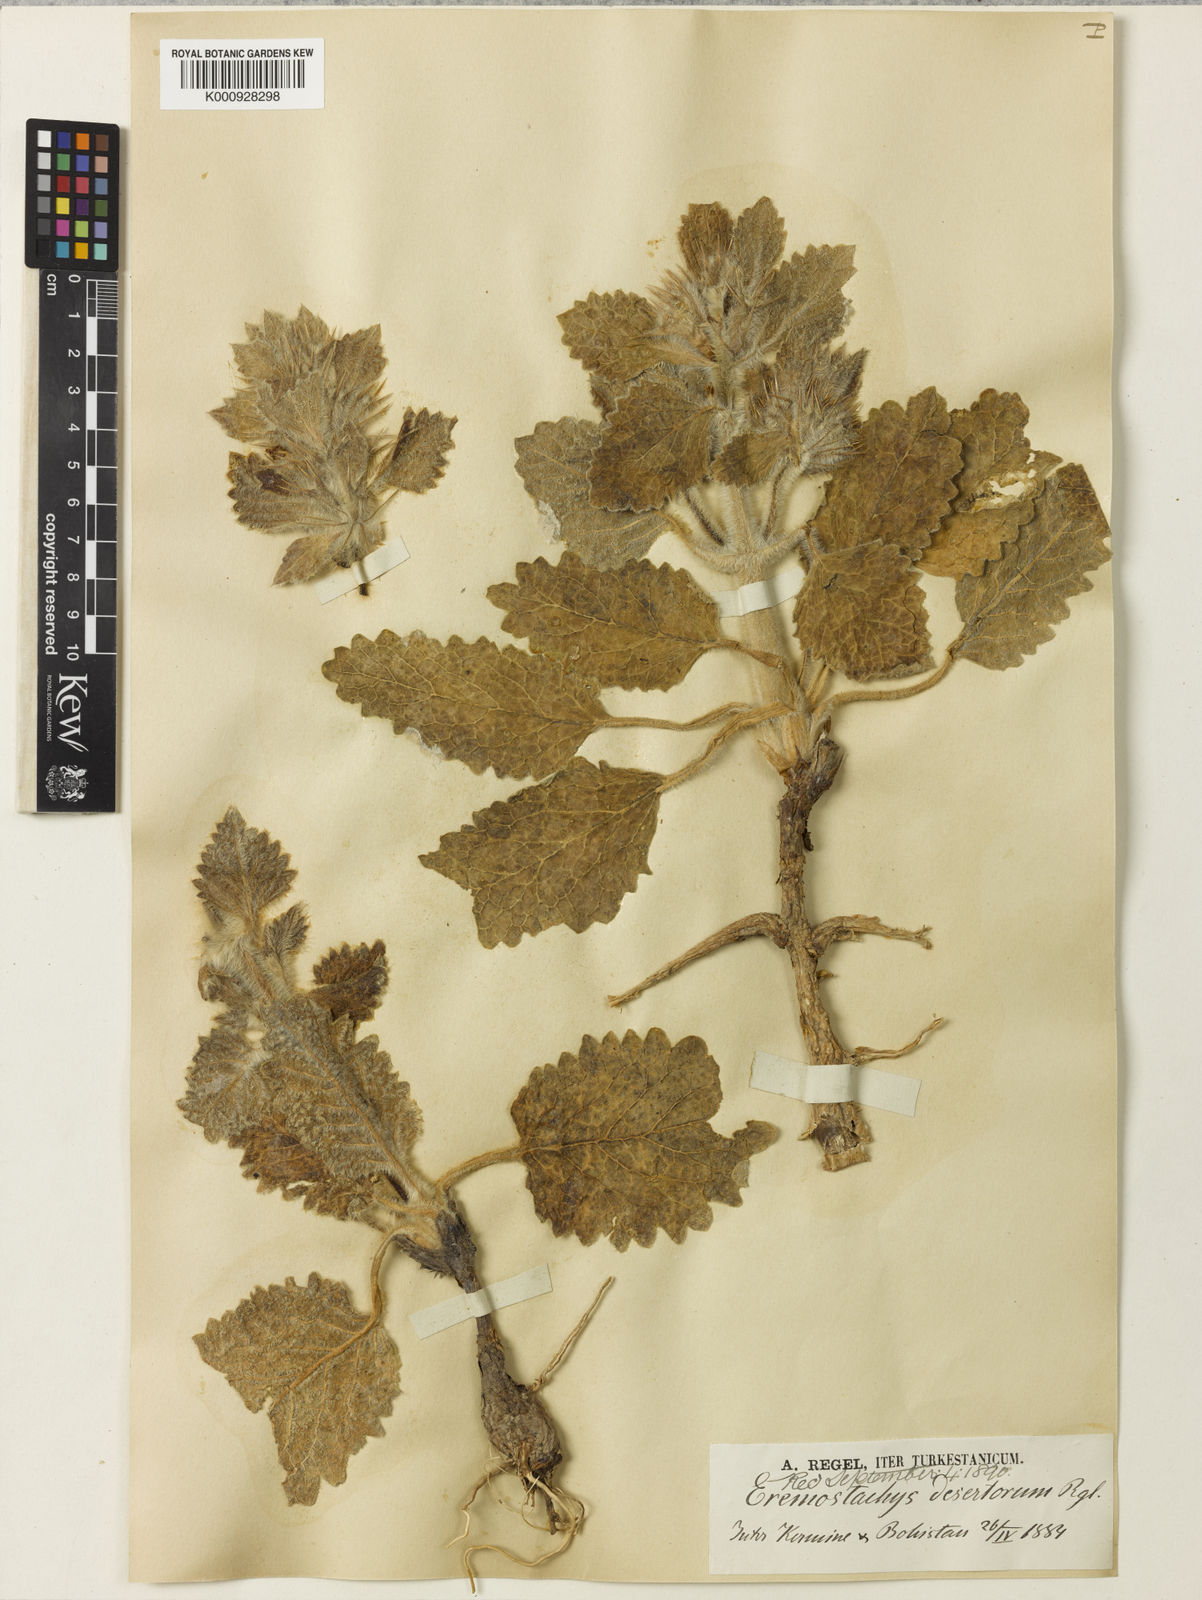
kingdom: Plantae
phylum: Tracheophyta
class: Magnoliopsida
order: Lamiales
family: Lamiaceae
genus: Phlomoides
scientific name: Phlomoides deserticola
